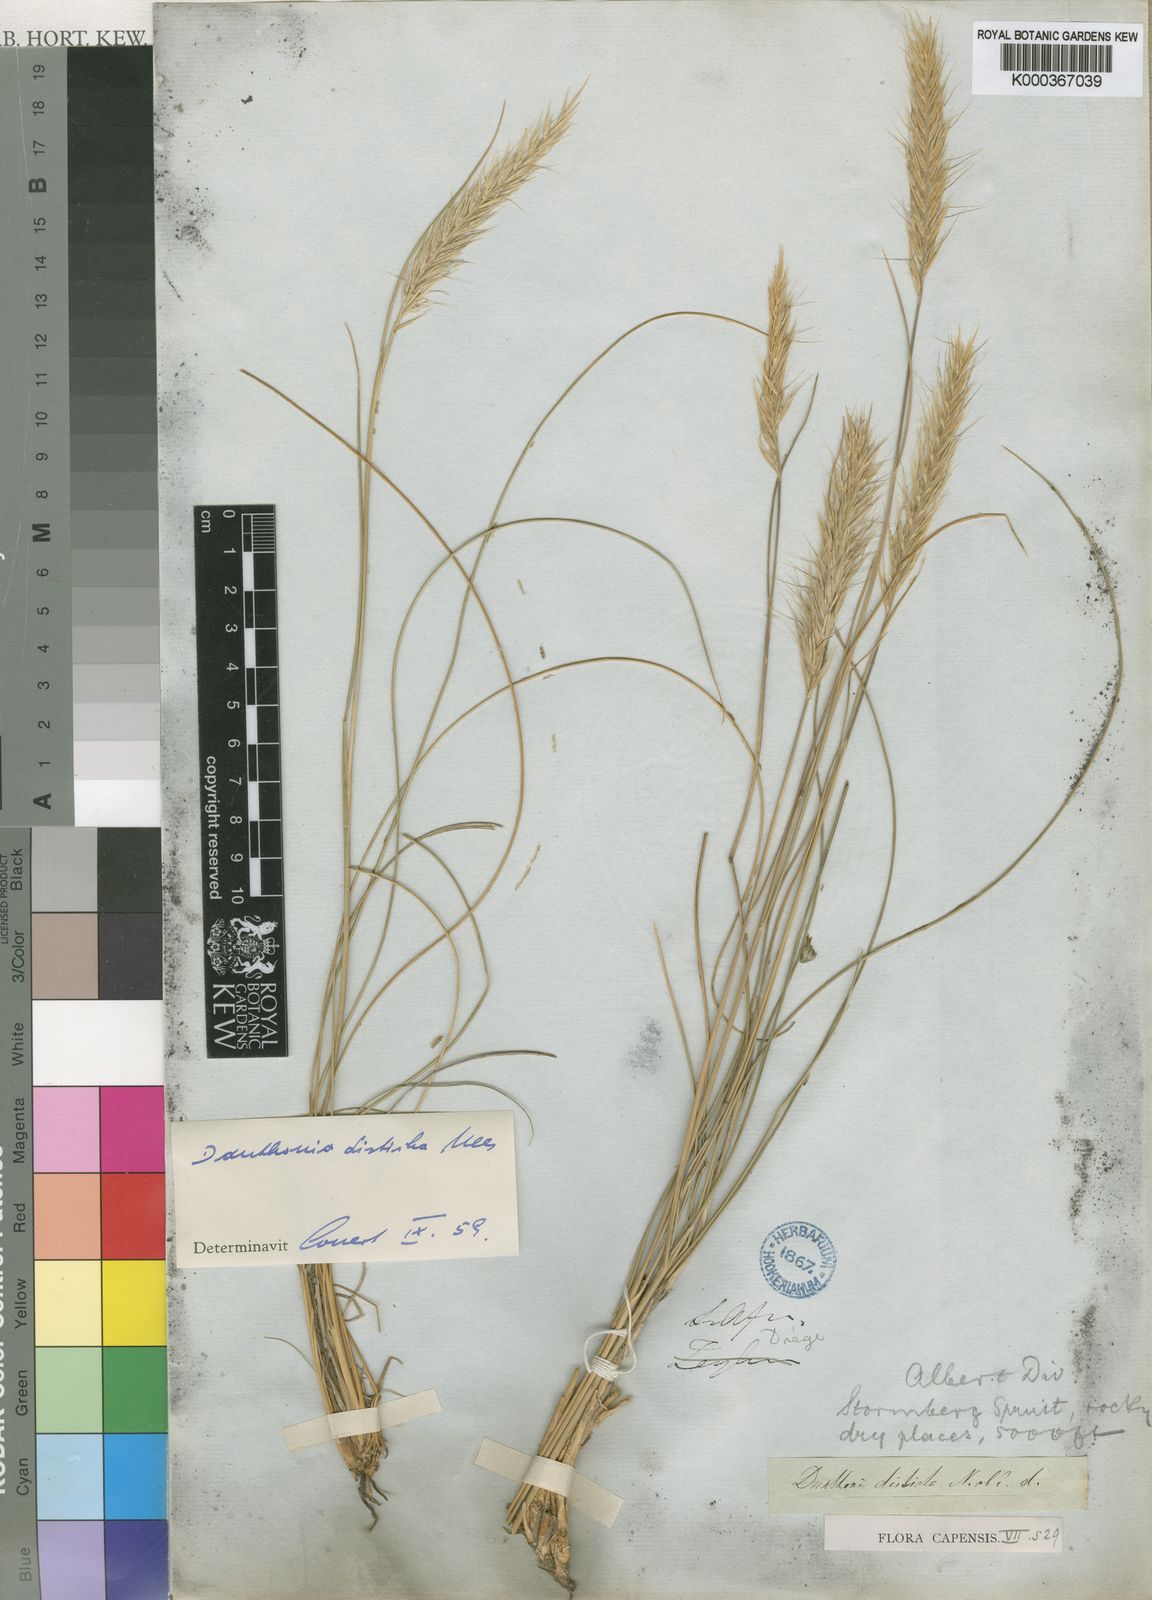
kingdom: Plantae
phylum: Tracheophyta
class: Liliopsida
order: Poales
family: Poaceae
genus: Tenaxia
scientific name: Tenaxia disticha
